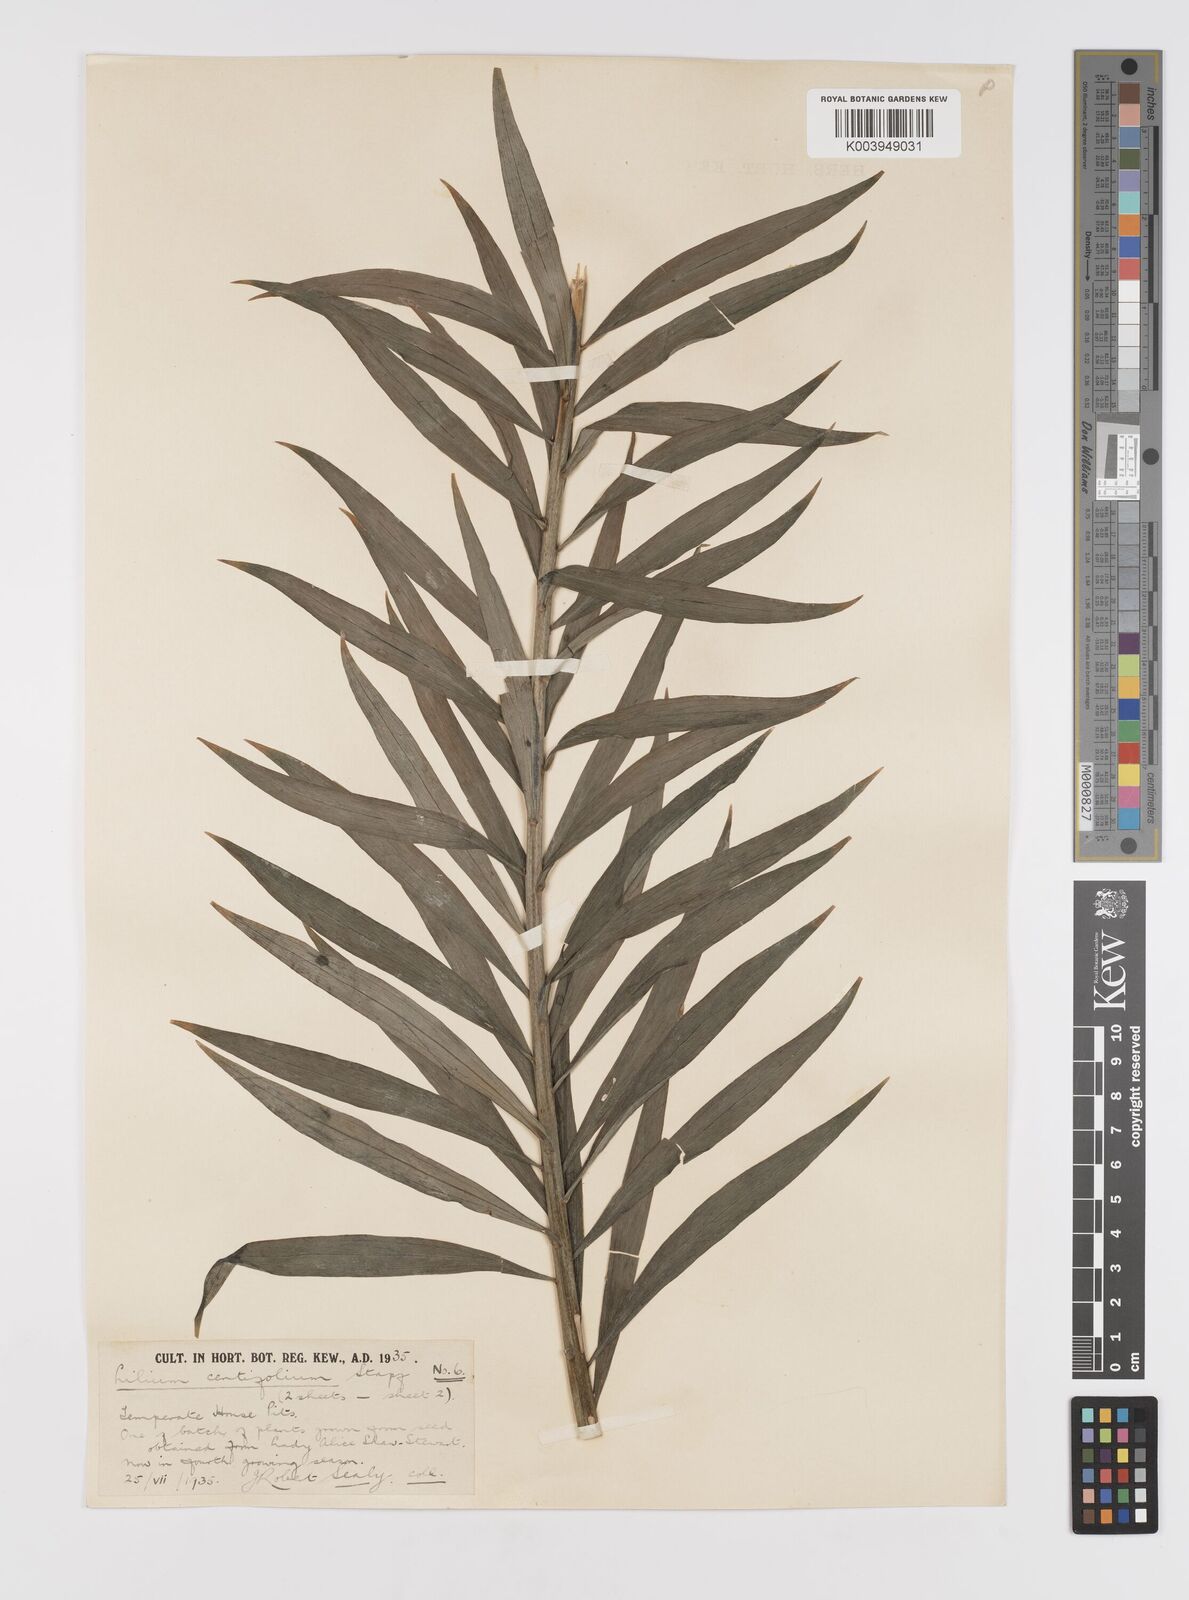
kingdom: Plantae
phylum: Tracheophyta
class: Liliopsida
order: Liliales
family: Liliaceae
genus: Lilium
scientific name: Lilium sargentiae
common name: Sargent lily
